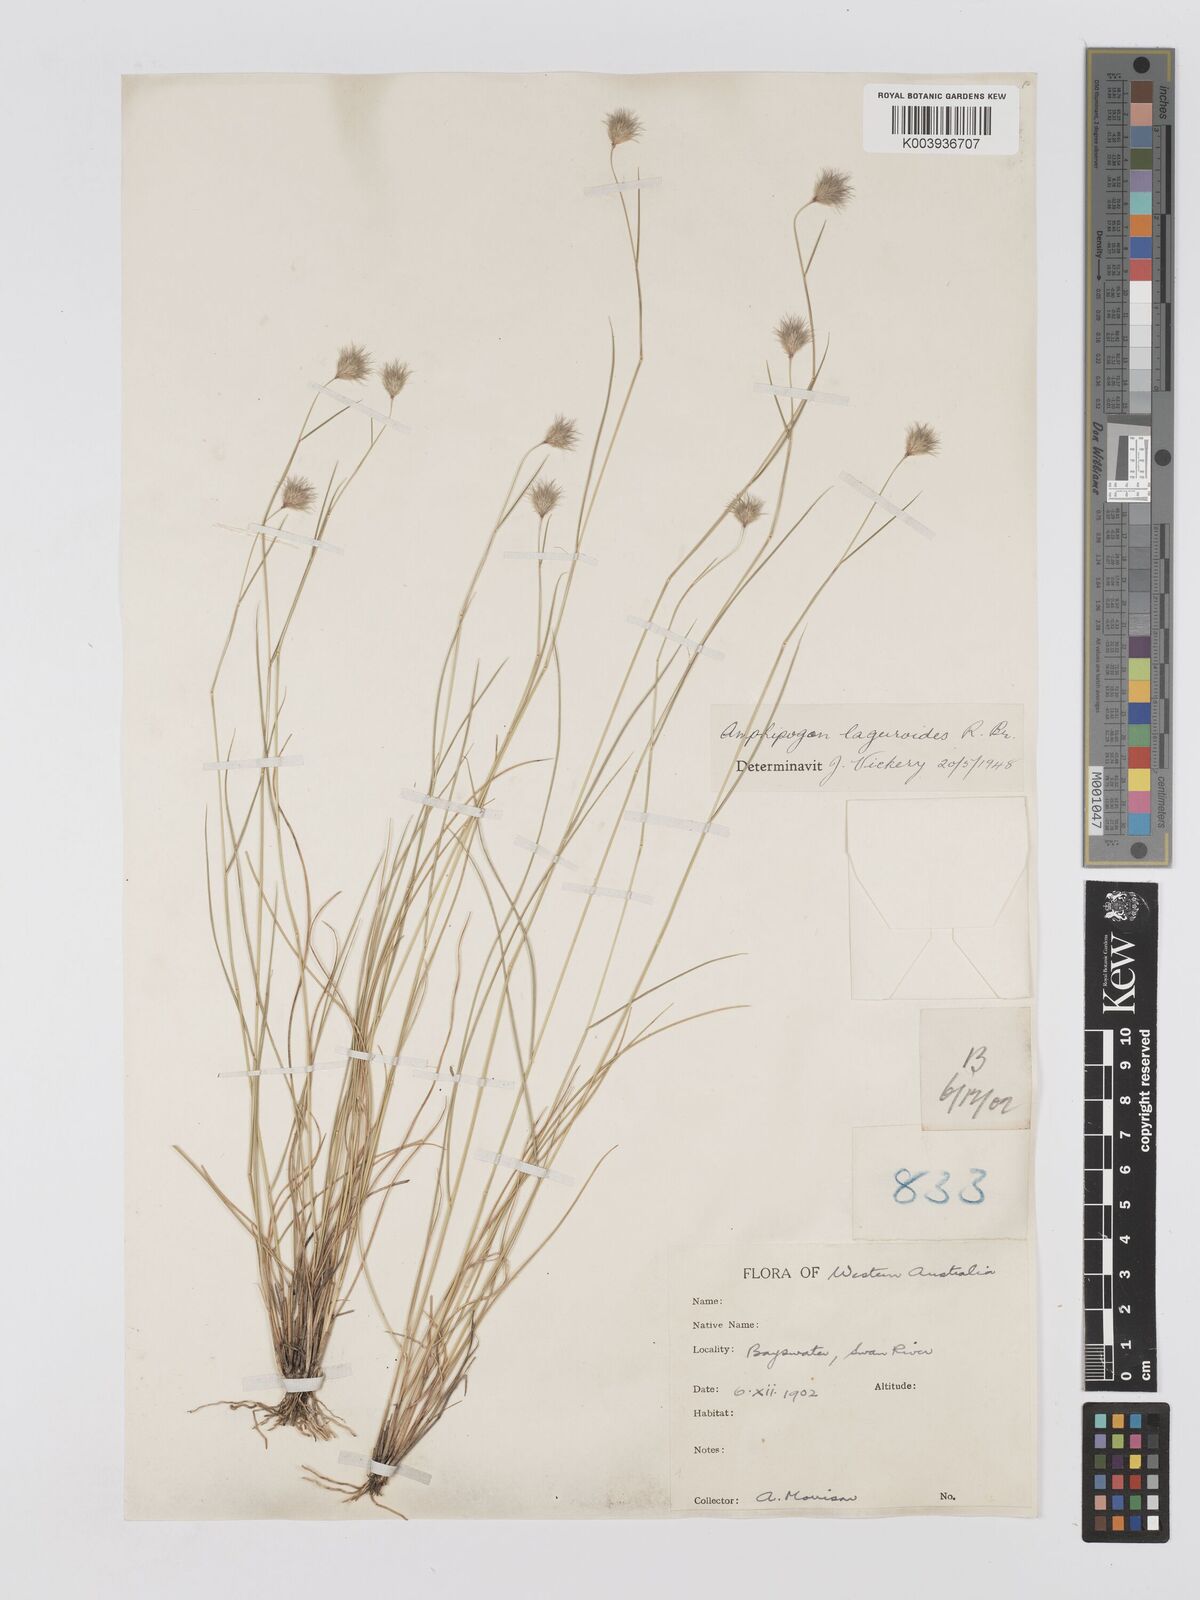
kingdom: Plantae
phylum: Tracheophyta
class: Liliopsida
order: Poales
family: Poaceae
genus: Amphipogon
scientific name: Amphipogon laguroides
